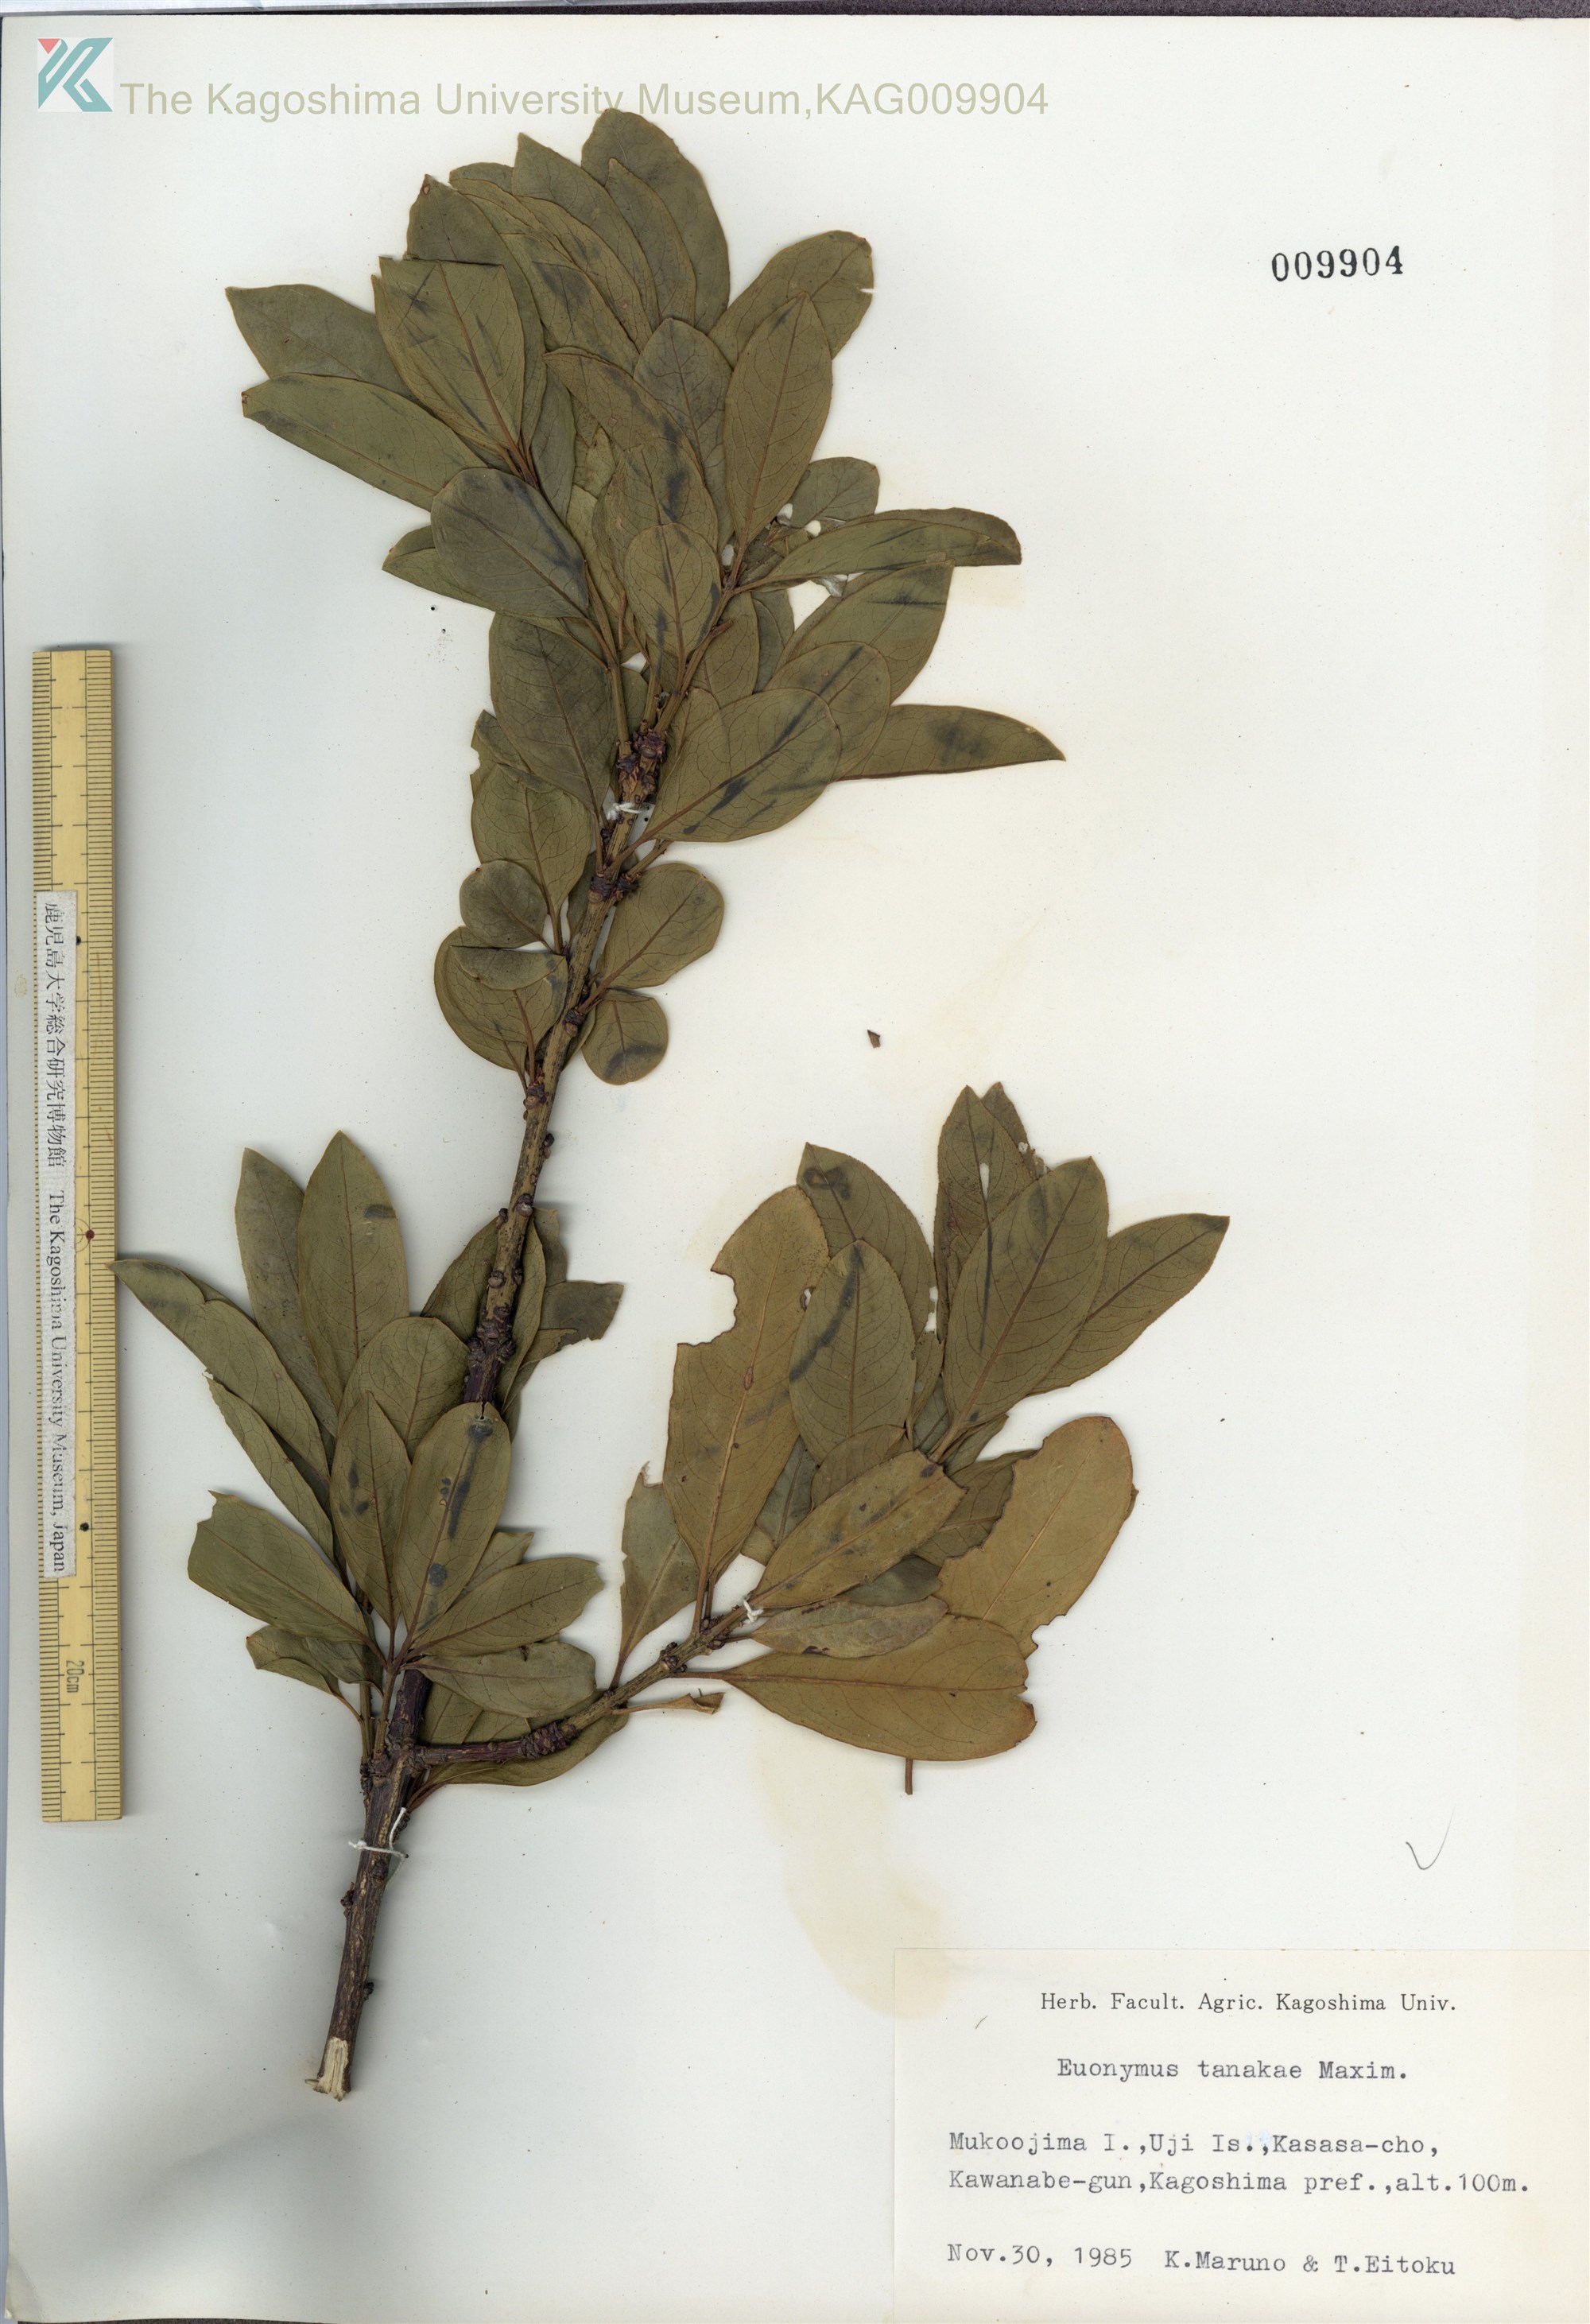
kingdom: Plantae
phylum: Tracheophyta
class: Magnoliopsida
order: Celastrales
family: Celastraceae
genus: Euonymus
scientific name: Euonymus carnosus
